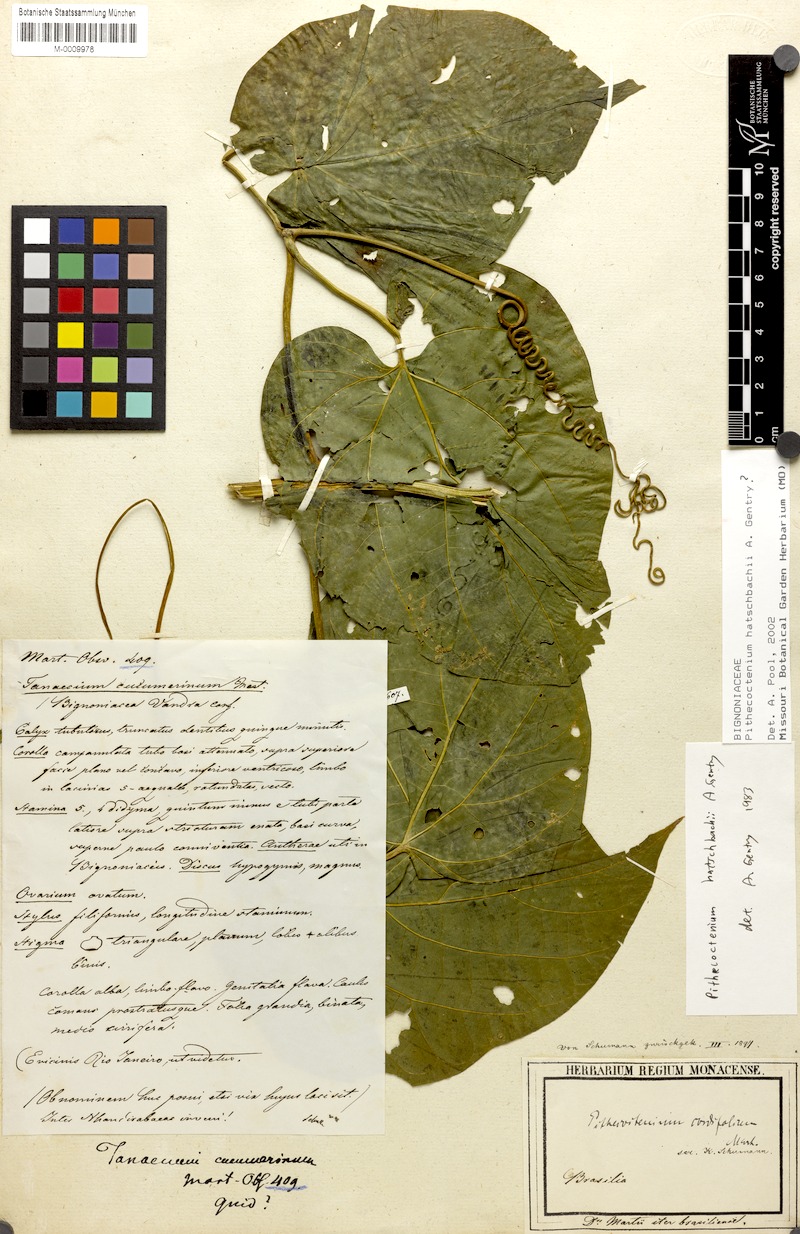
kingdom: Plantae
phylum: Tracheophyta
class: Magnoliopsida
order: Lamiales
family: Bignoniaceae
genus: Amphilophium
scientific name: Amphilophium crucigerum
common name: Monkey comb
